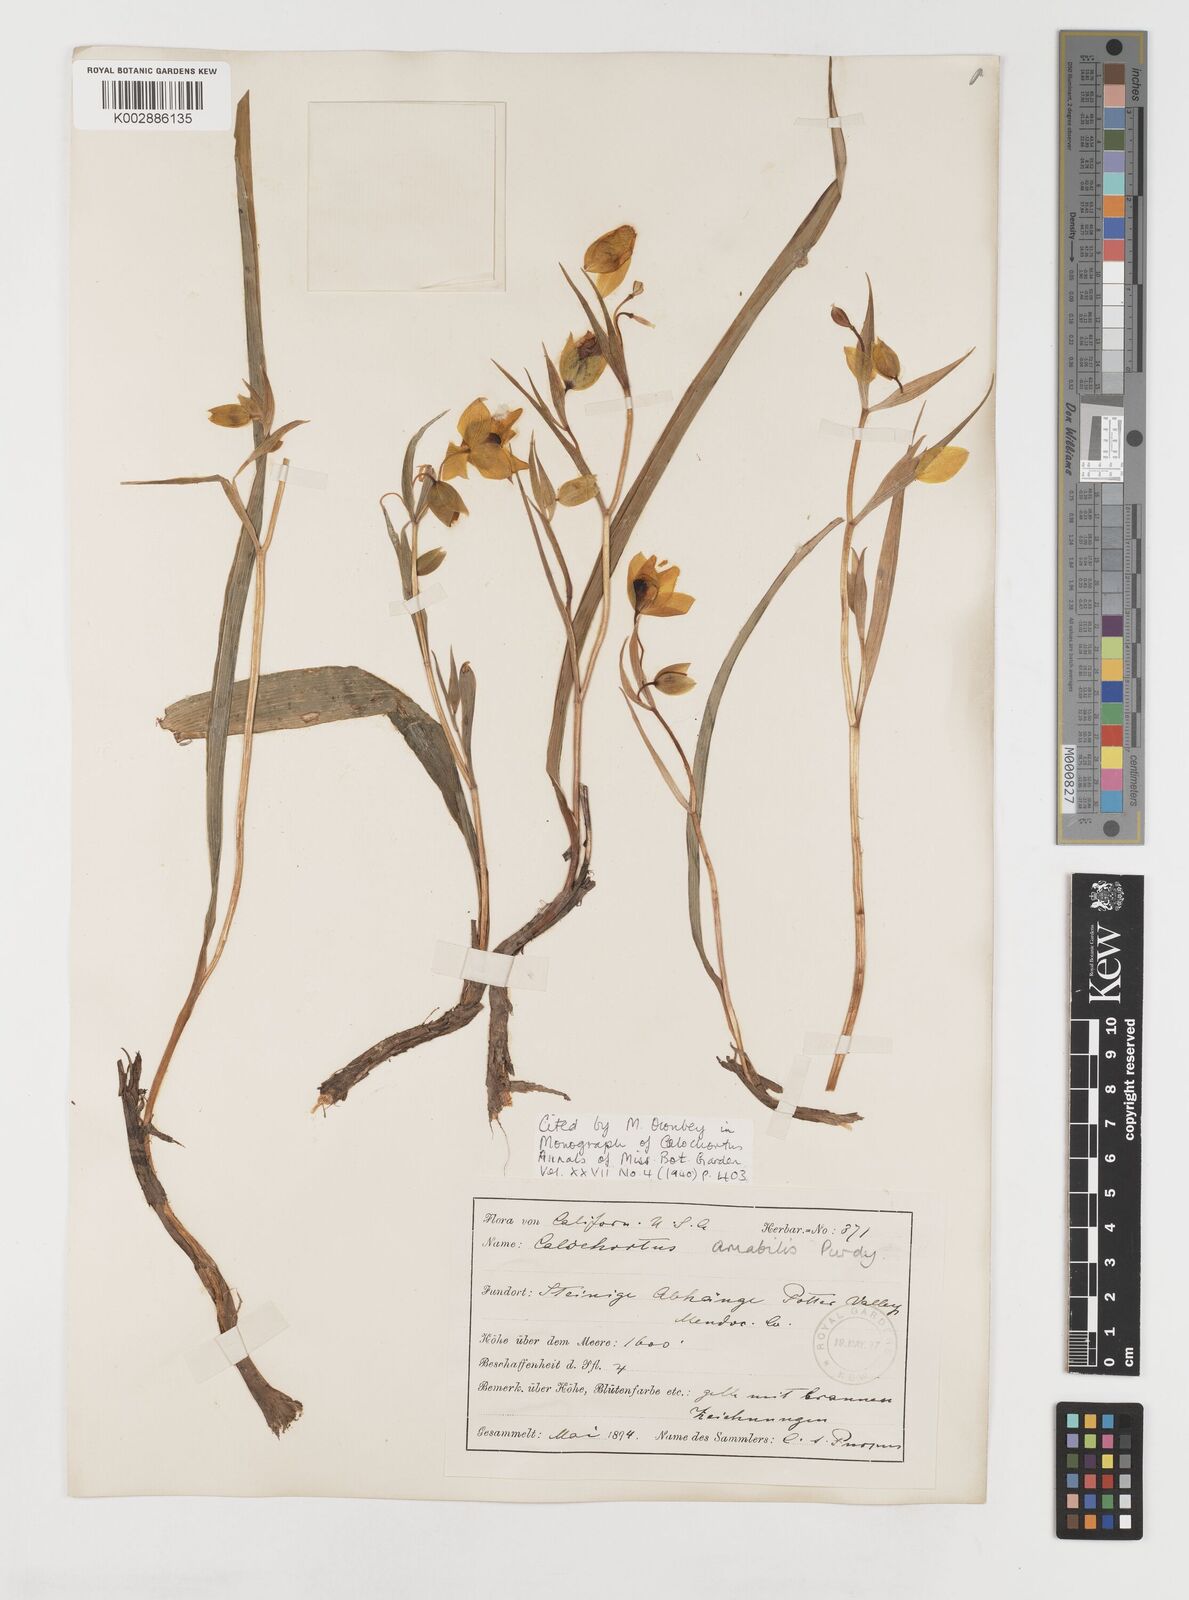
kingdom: Plantae
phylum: Tracheophyta
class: Liliopsida
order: Liliales
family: Liliaceae
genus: Calochortus
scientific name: Calochortus amabilis
